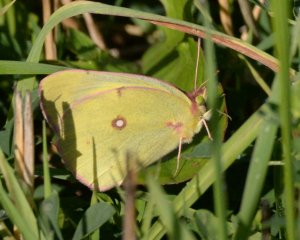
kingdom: Animalia
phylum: Arthropoda
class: Insecta
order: Lepidoptera
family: Pieridae
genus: Colias
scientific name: Colias philodice
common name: Clouded Sulphur
